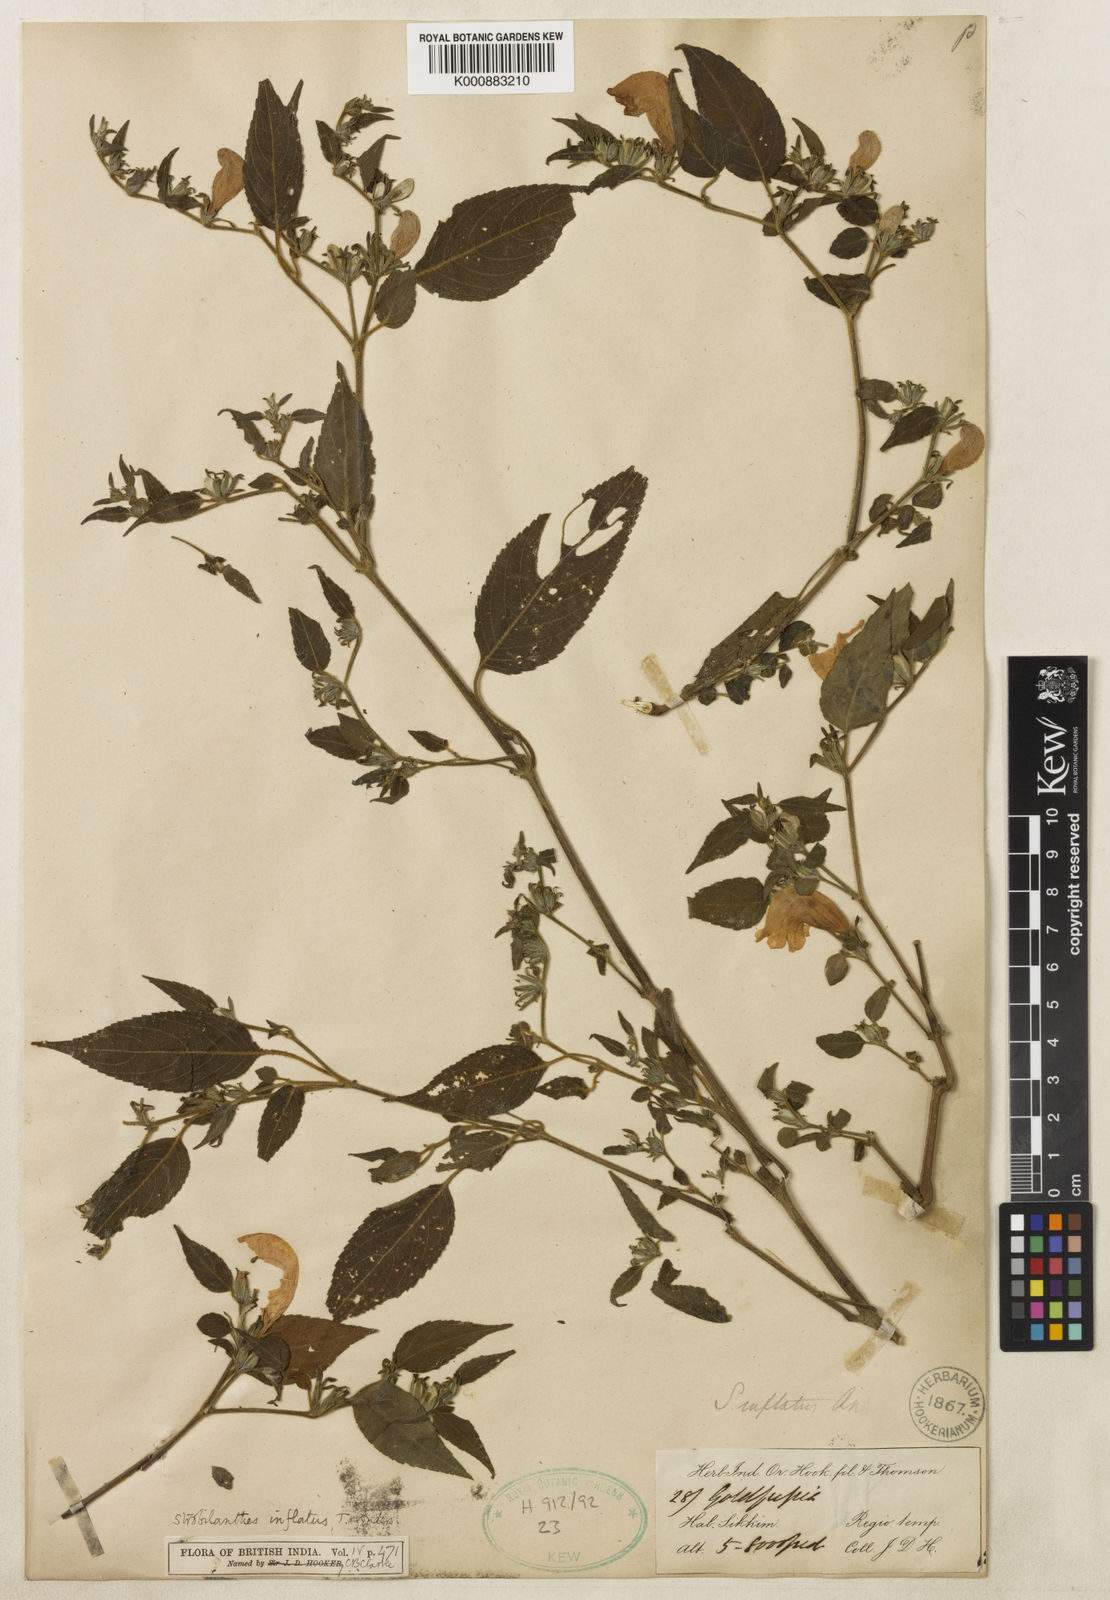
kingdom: Plantae
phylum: Tracheophyta
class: Magnoliopsida
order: Lamiales
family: Acanthaceae
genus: Strobilanthes
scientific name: Strobilanthes inflata
